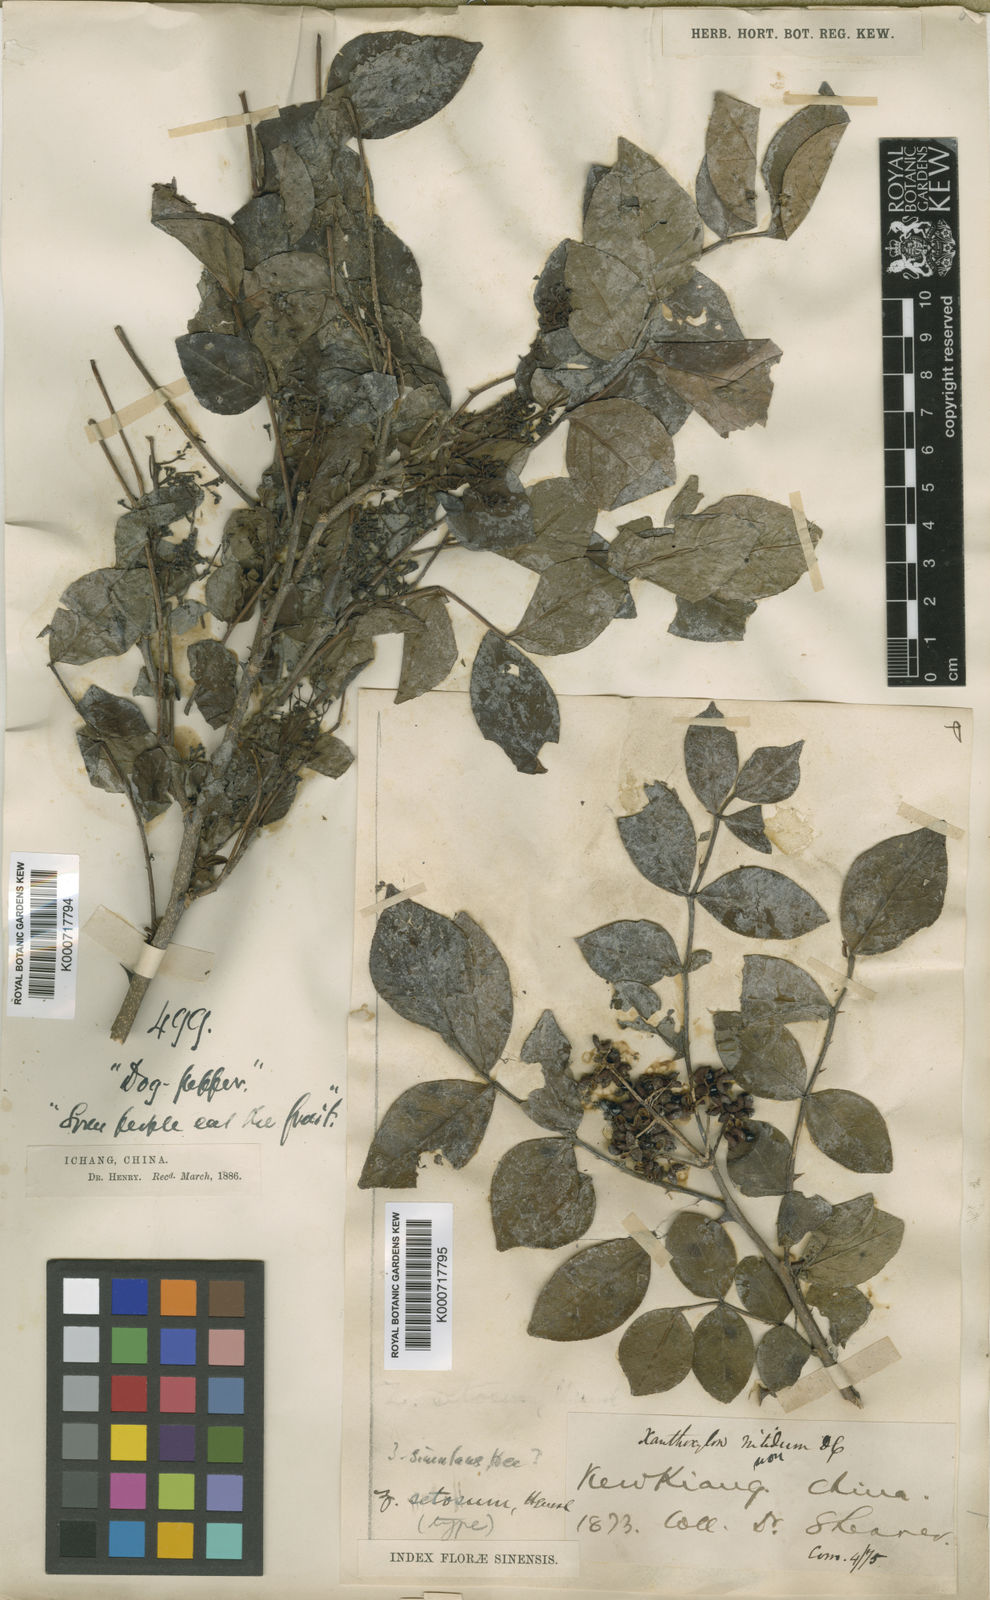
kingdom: Plantae
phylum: Tracheophyta
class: Magnoliopsida
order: Sapindales
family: Rutaceae
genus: Zanthoxylum
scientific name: Zanthoxylum simulans
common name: Chinese-pepper
